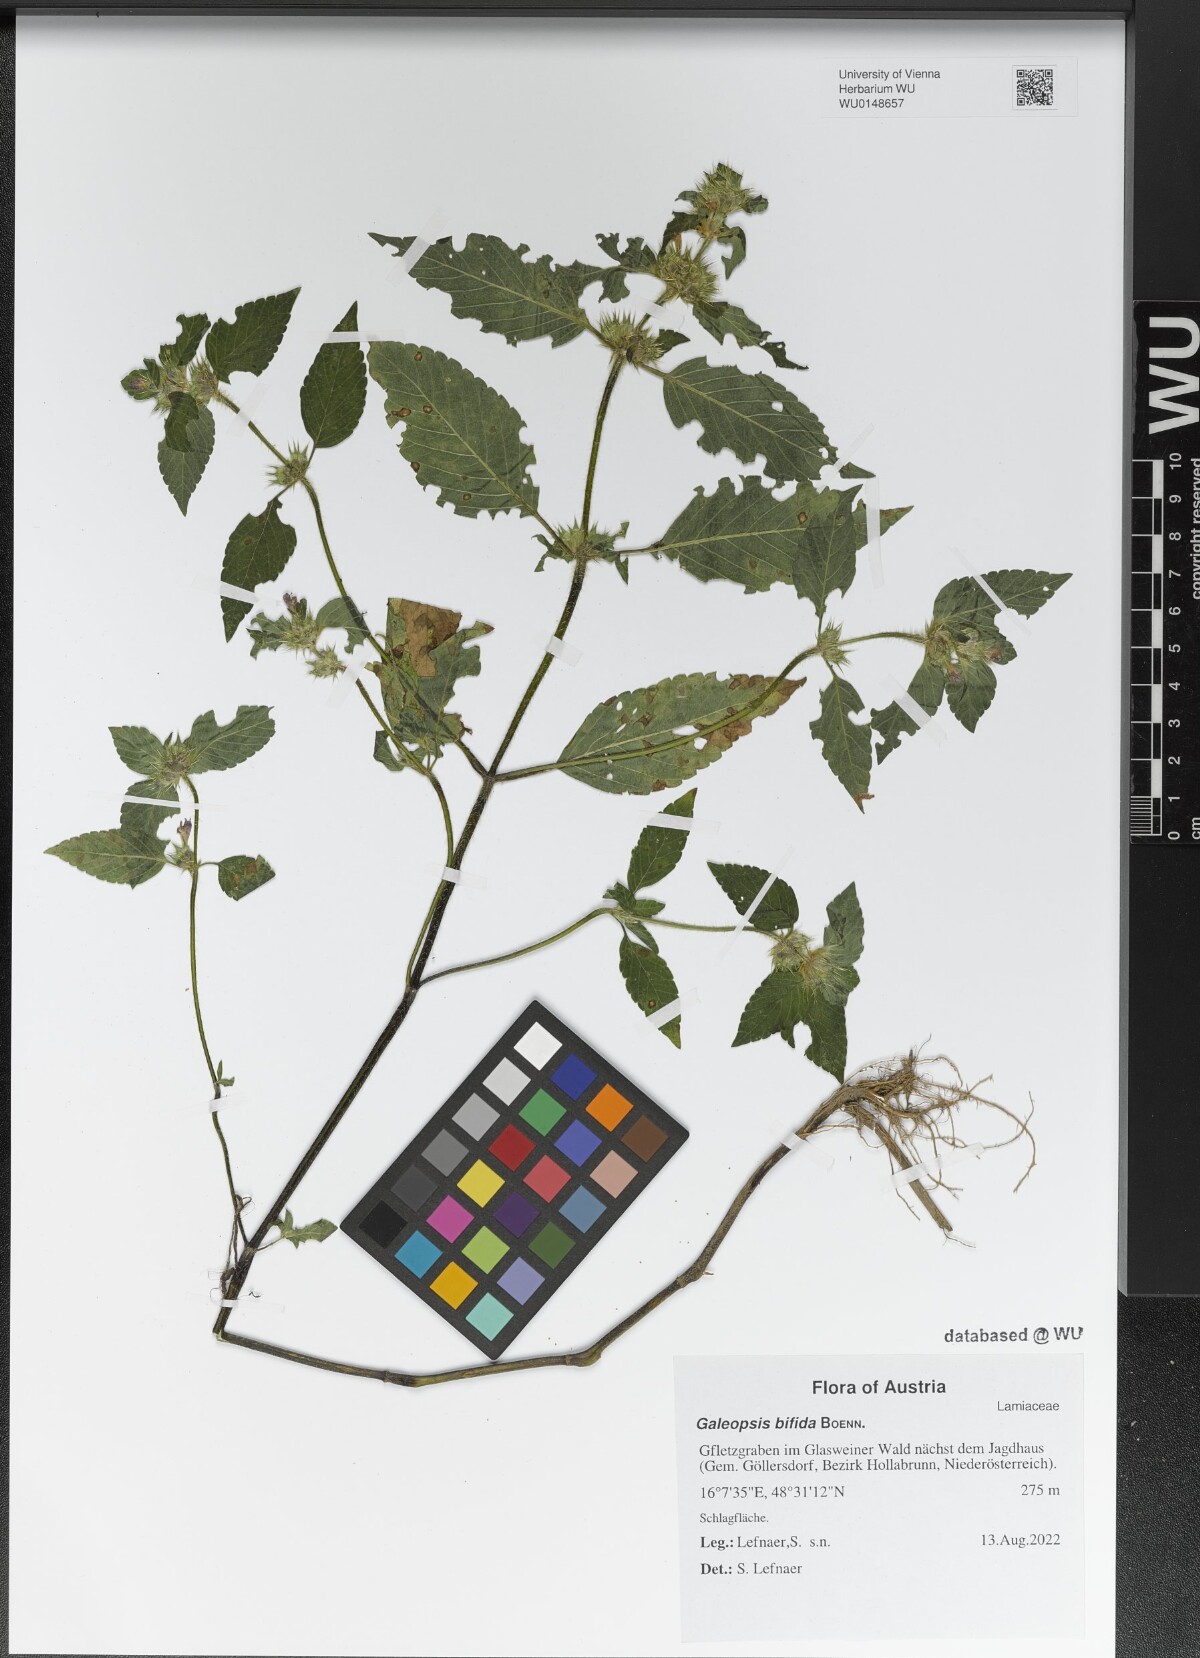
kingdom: Plantae
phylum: Tracheophyta
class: Magnoliopsida
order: Lamiales
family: Lamiaceae
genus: Galeopsis
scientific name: Galeopsis bifida
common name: Bifid hemp-nettle
